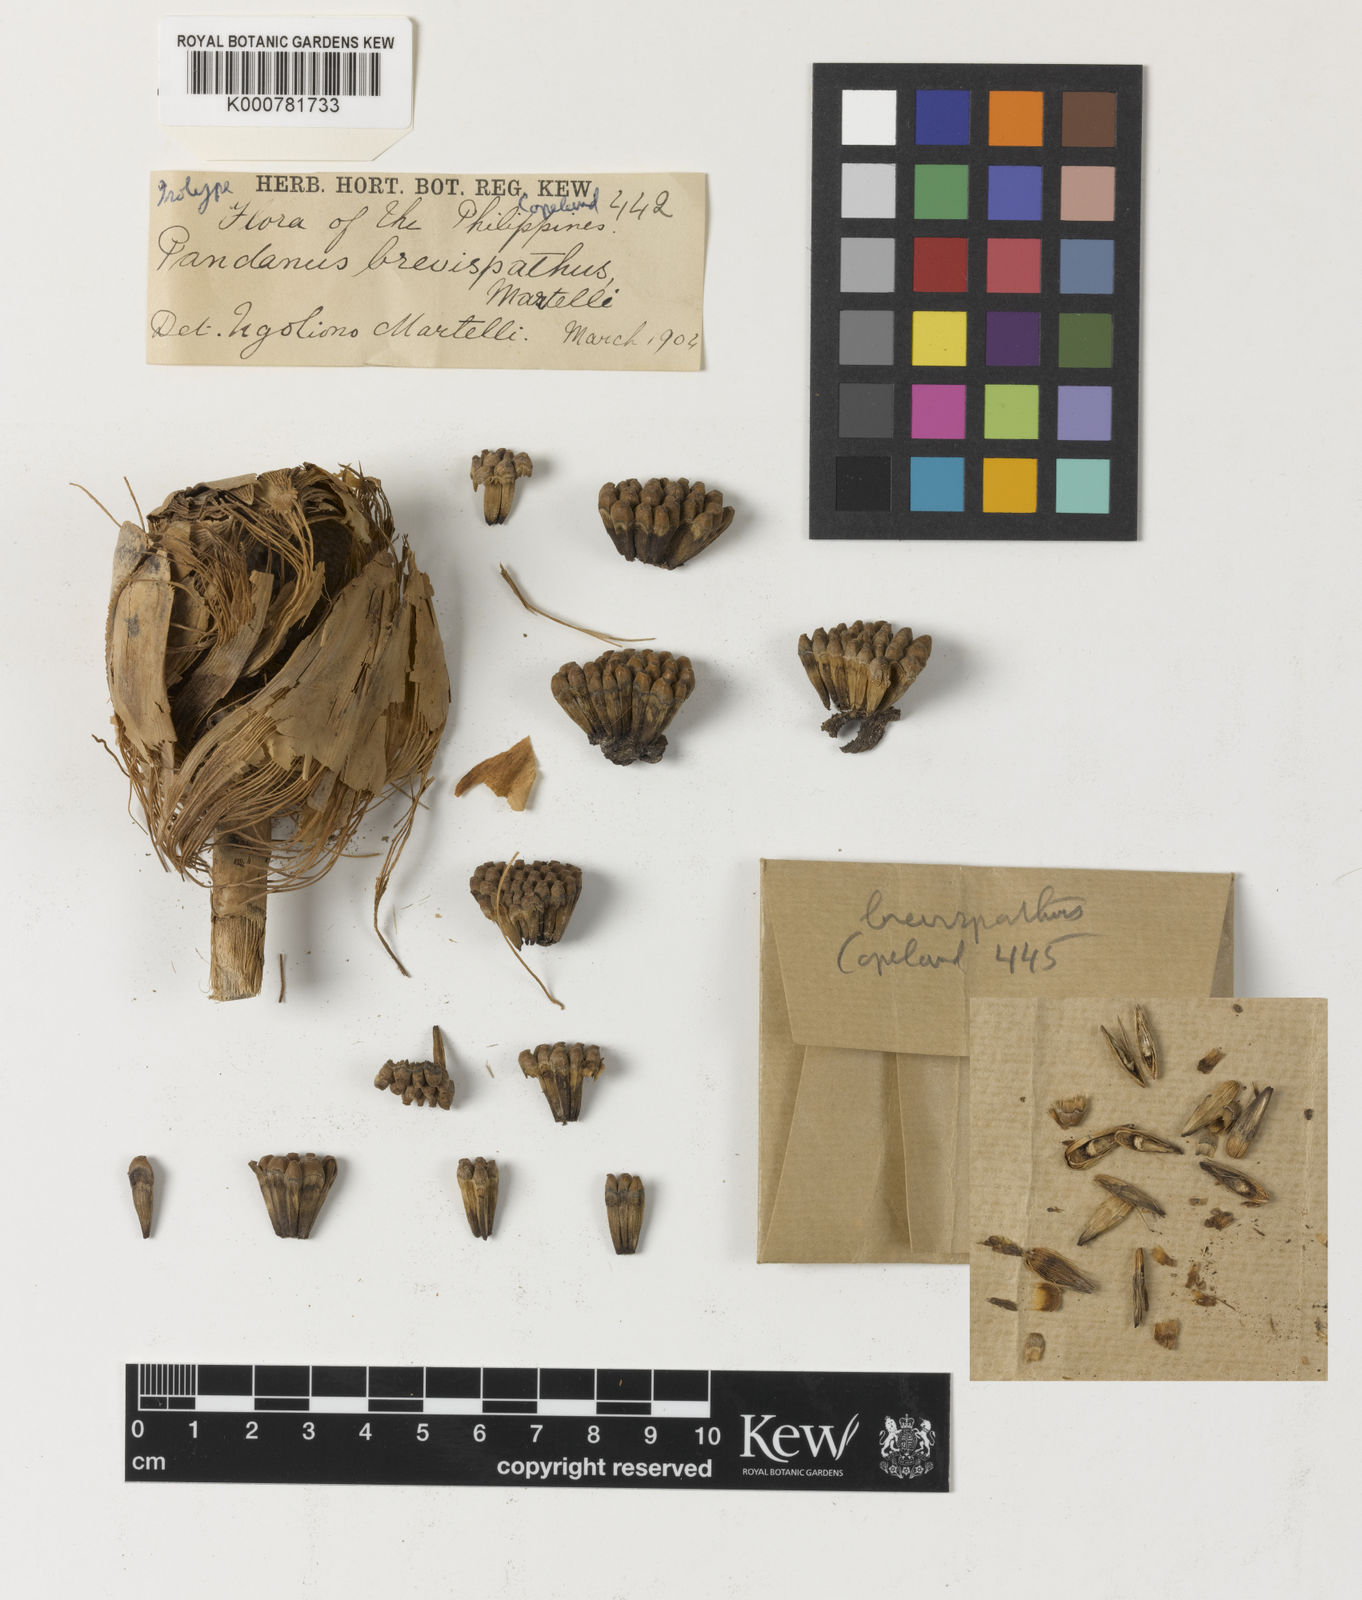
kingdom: Plantae
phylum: Tracheophyta
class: Liliopsida
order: Pandanales
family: Pandanaceae
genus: Pandanus
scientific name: Pandanus
